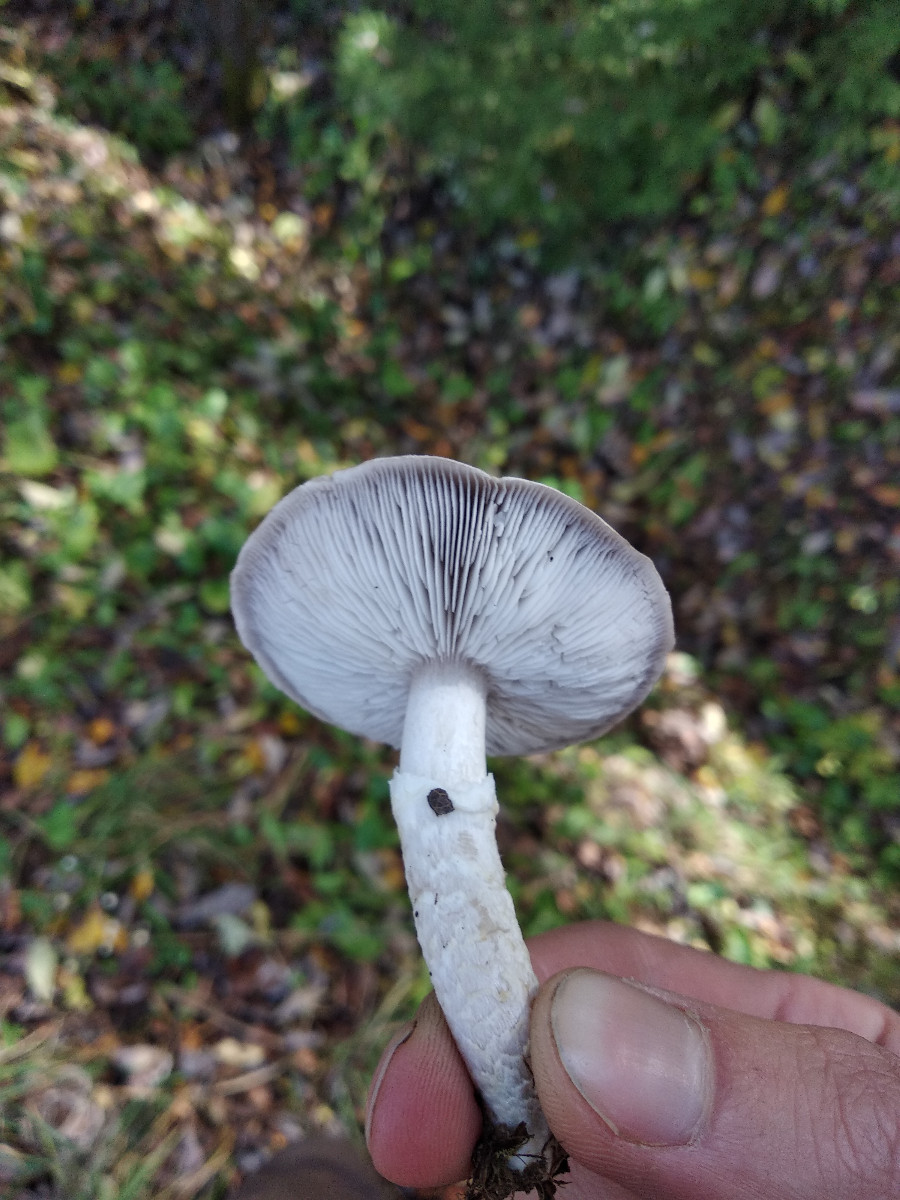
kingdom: Fungi
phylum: Basidiomycota
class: Agaricomycetes
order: Agaricales
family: Tricholomataceae
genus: Tricholoma
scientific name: Tricholoma cingulatum
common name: ring-ridderhat
